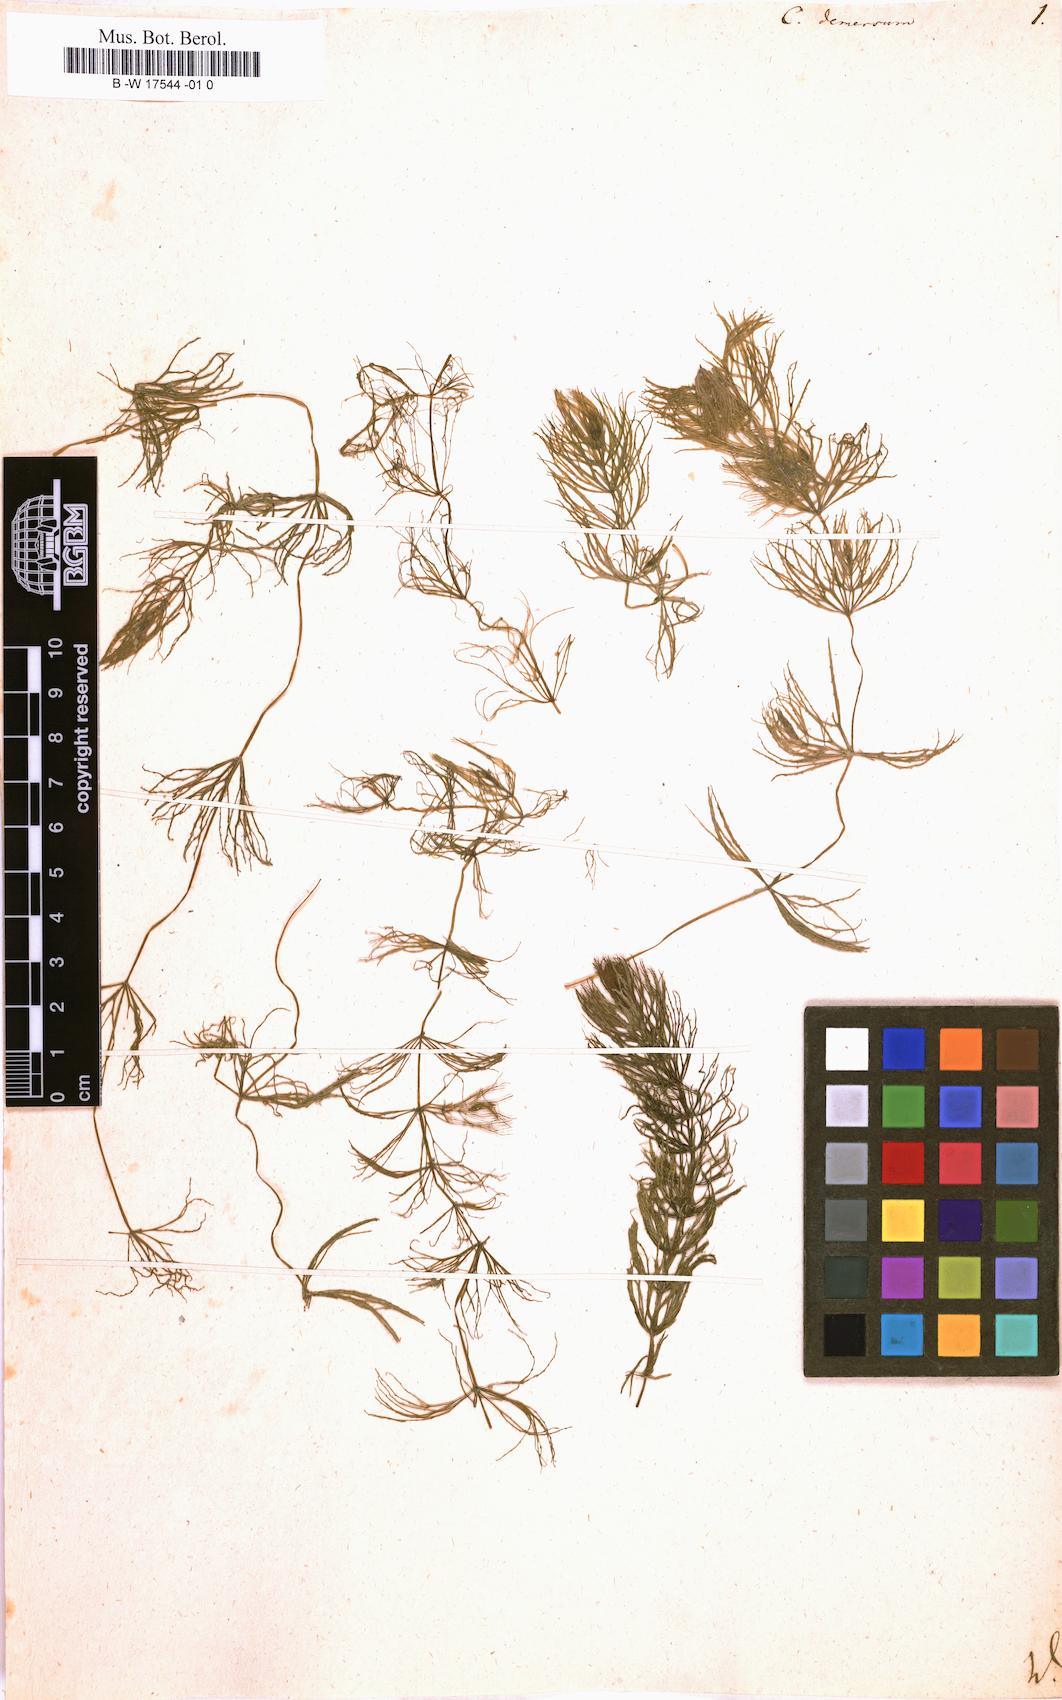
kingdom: Plantae
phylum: Tracheophyta
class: Magnoliopsida
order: Ceratophyllales
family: Ceratophyllaceae
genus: Ceratophyllum
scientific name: Ceratophyllum demersum
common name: Rigid hornwort
